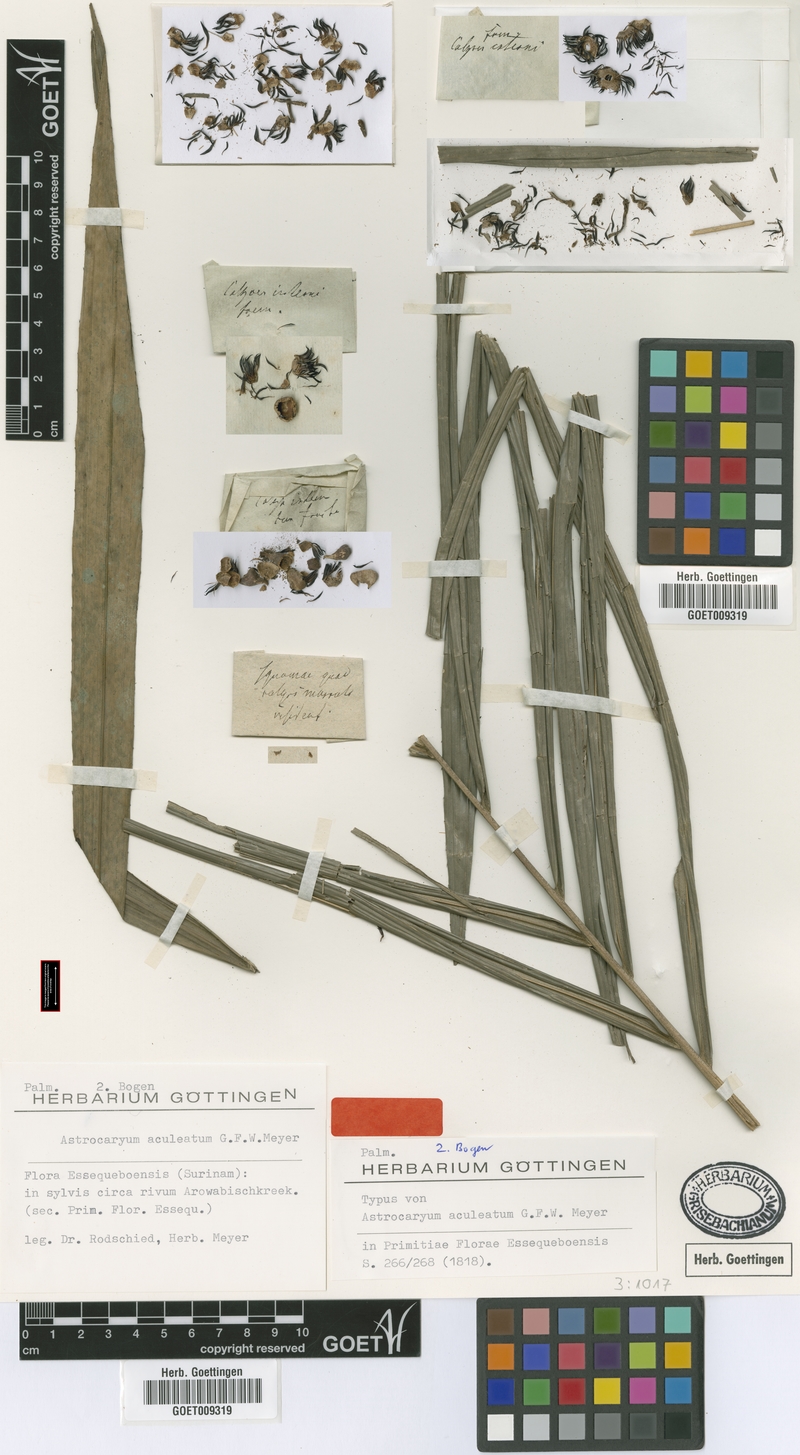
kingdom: Plantae
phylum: Tracheophyta
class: Liliopsida
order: Arecales
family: Arecaceae
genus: Astrocaryum
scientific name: Astrocaryum aculeatum
